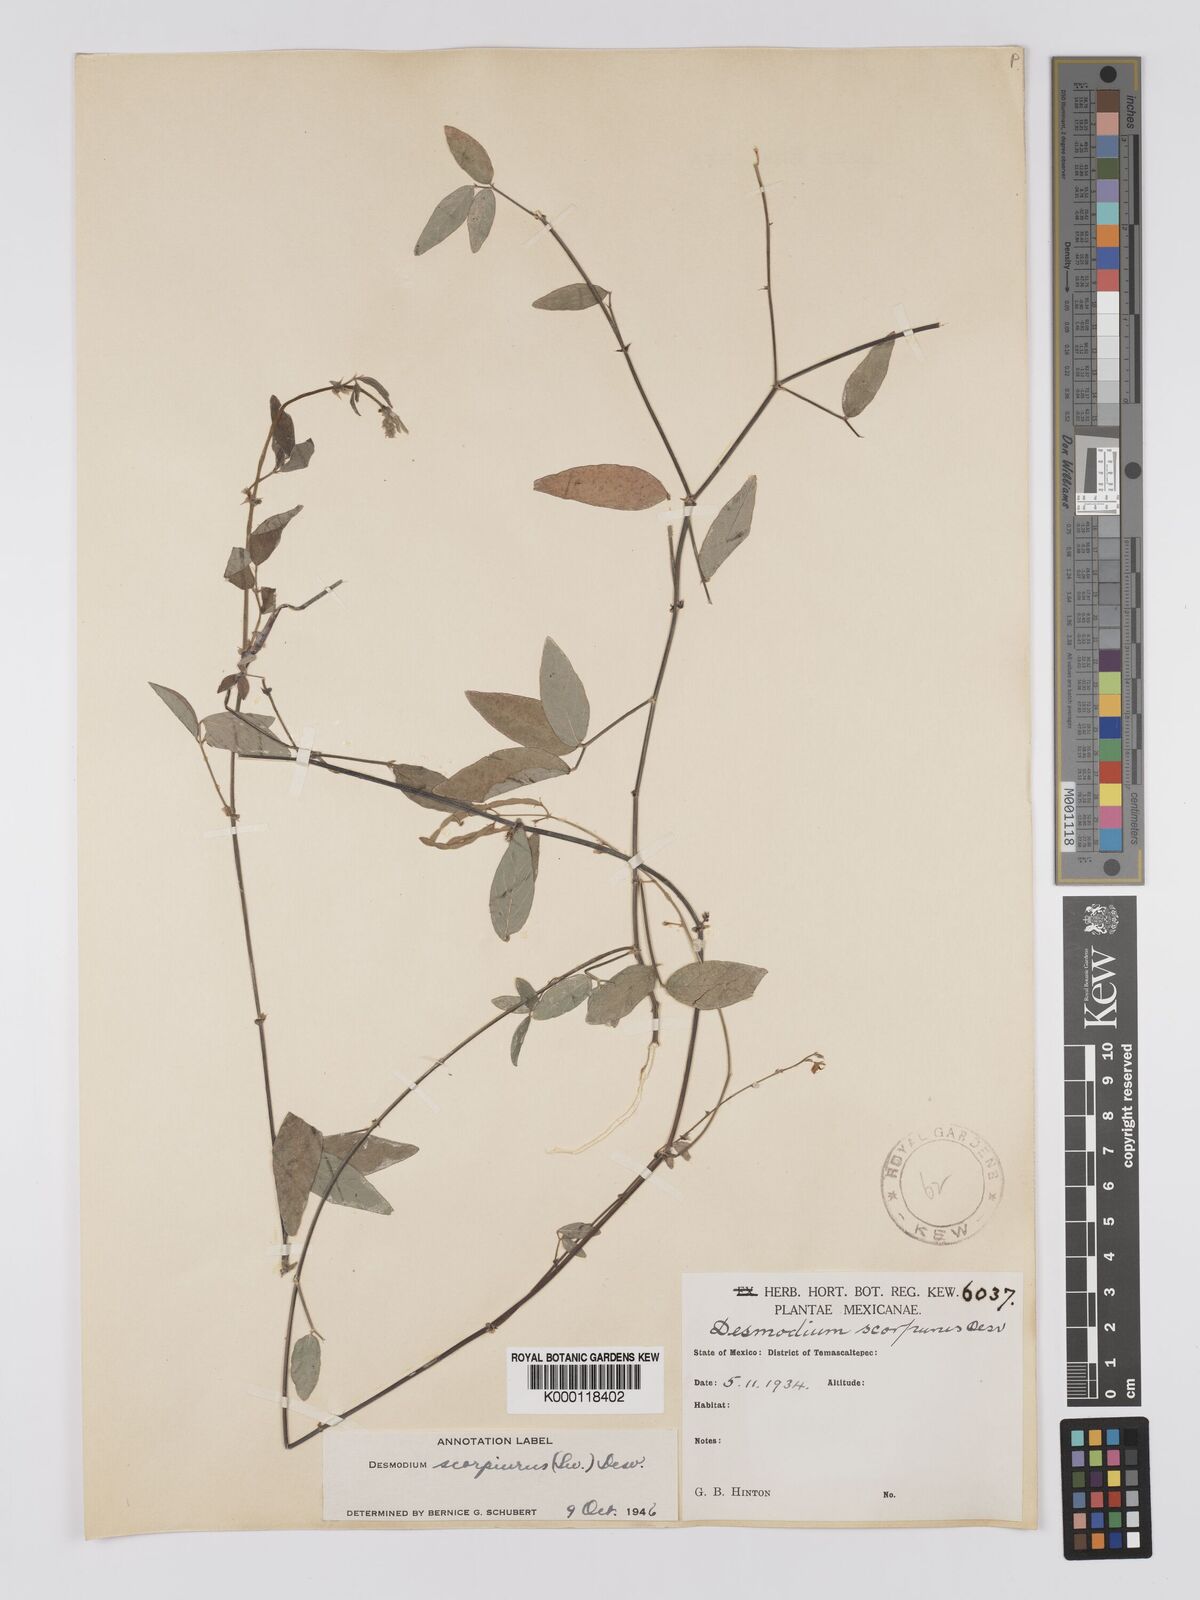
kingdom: Plantae
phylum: Tracheophyta
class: Magnoliopsida
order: Fabales
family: Fabaceae
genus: Desmodium
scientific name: Desmodium
